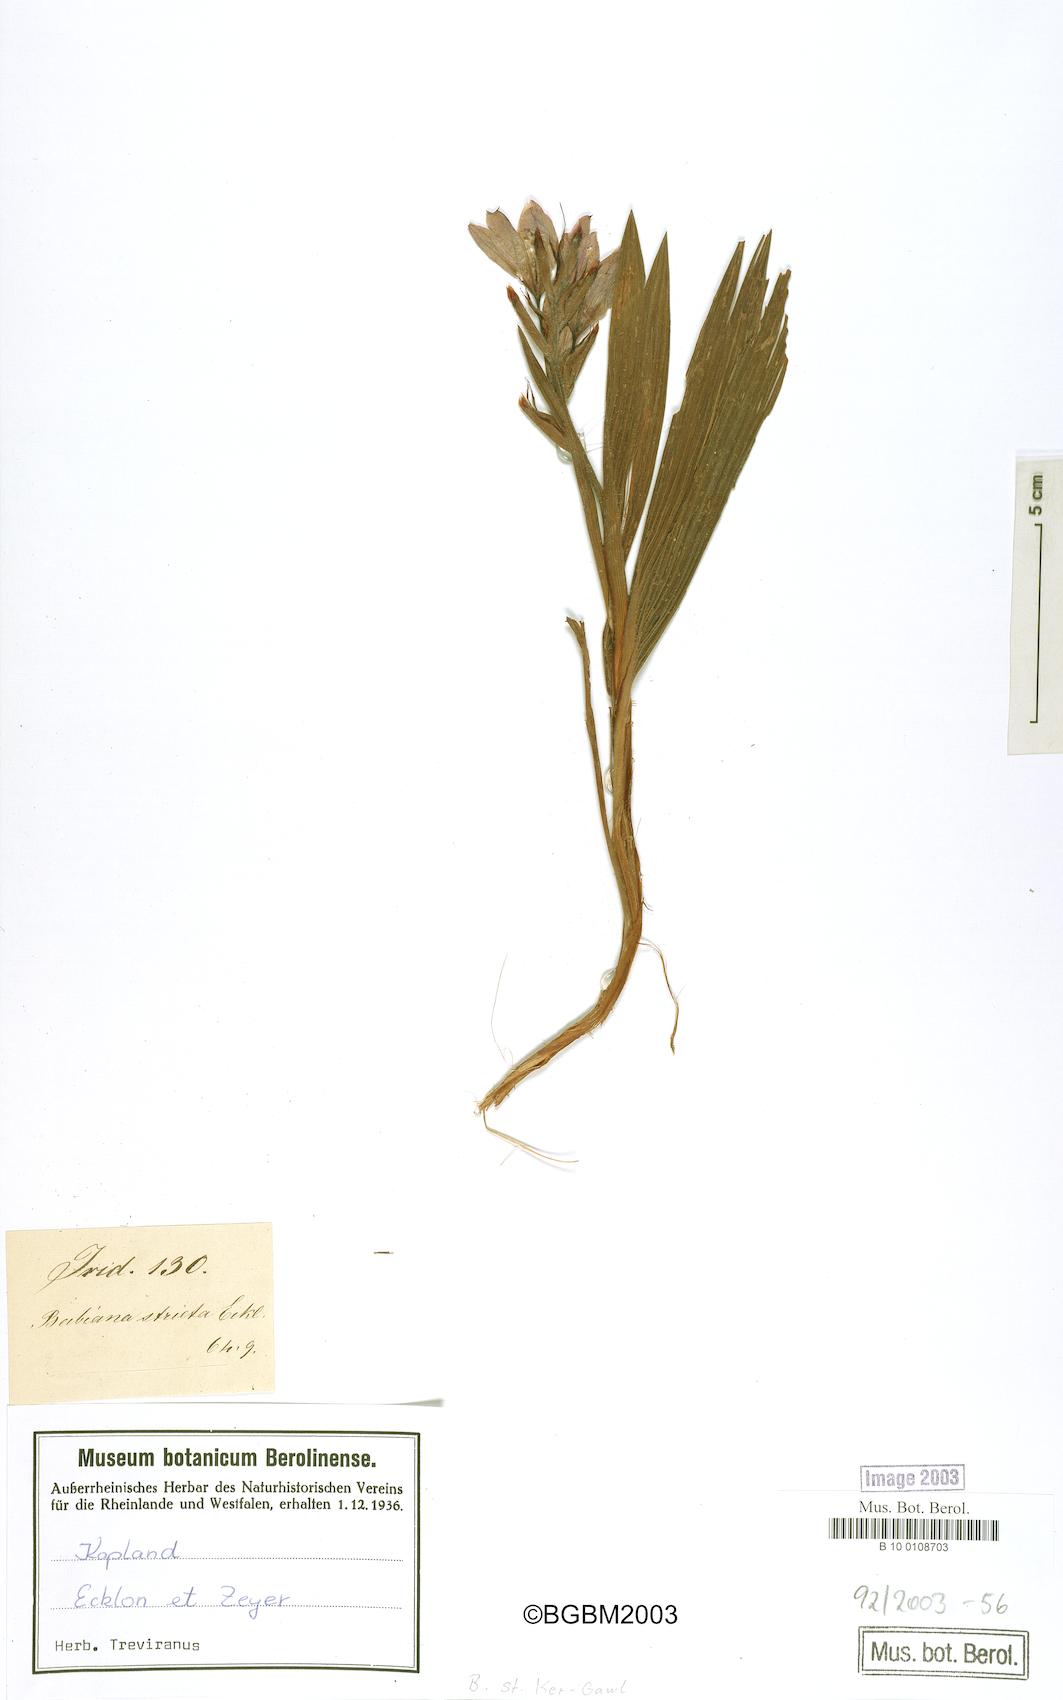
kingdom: Plantae
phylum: Tracheophyta
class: Liliopsida
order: Asparagales
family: Iridaceae
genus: Babiana
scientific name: Babiana nervosa
